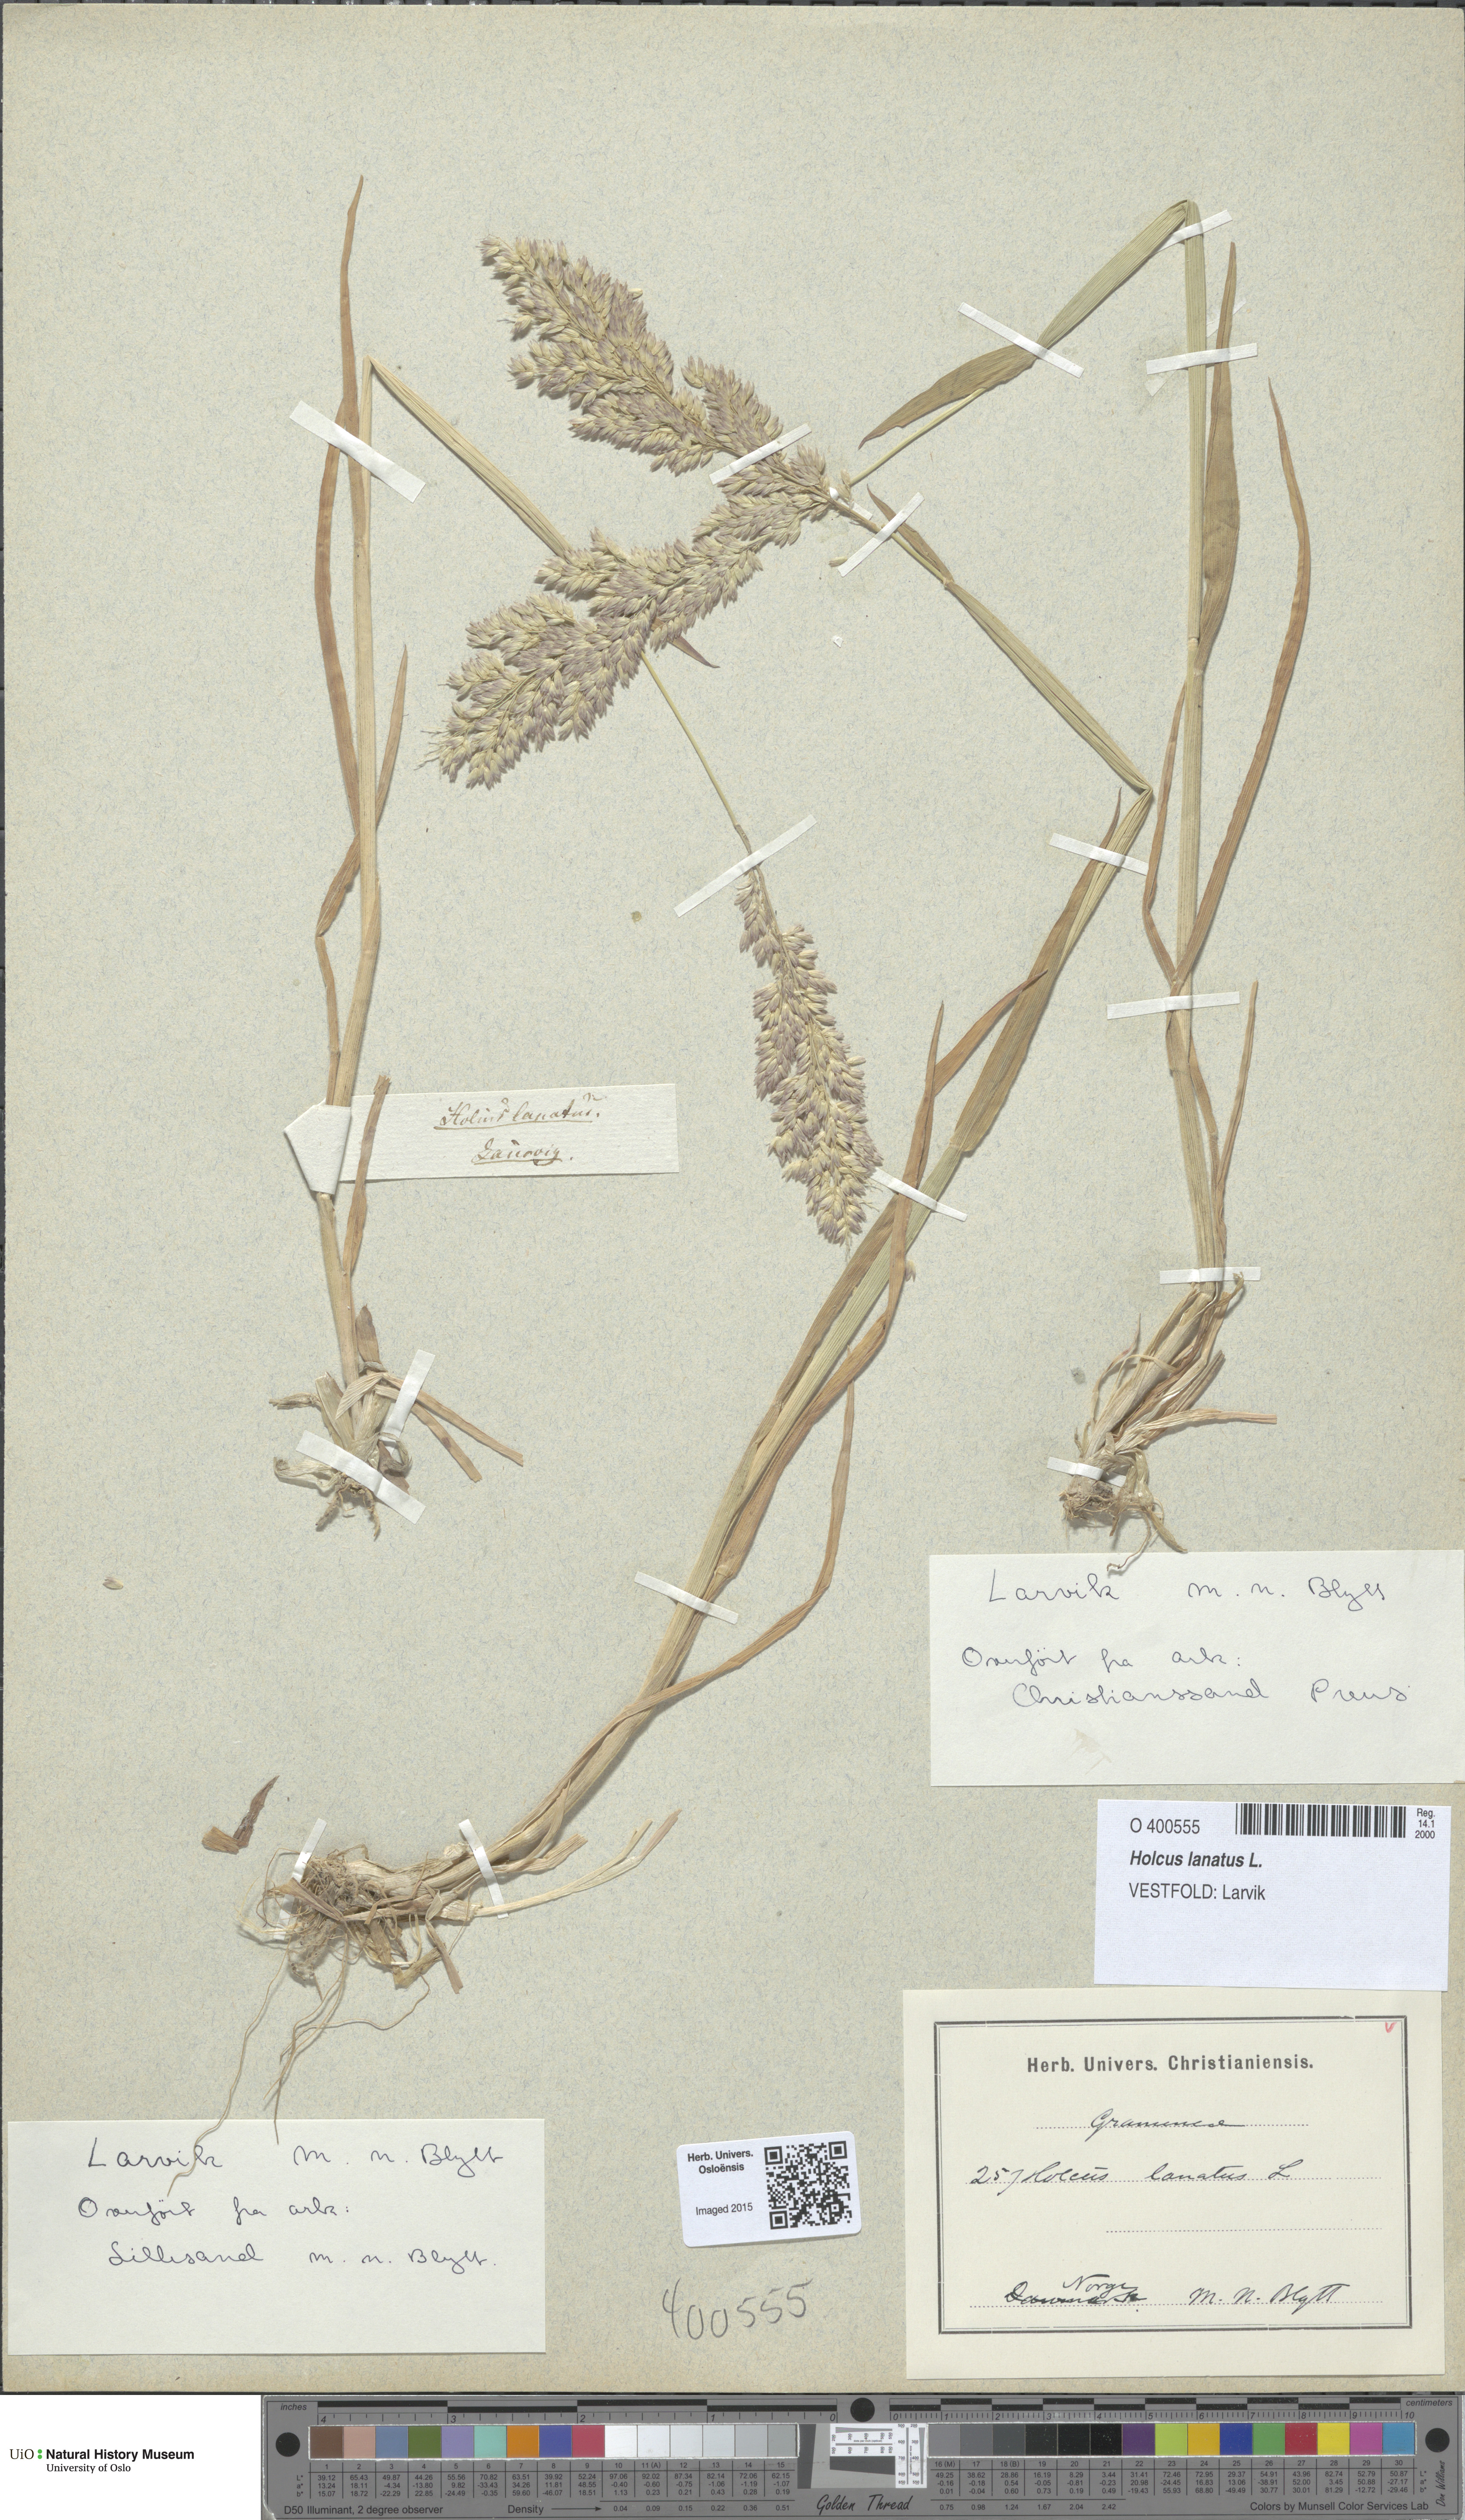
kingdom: Plantae
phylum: Tracheophyta
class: Liliopsida
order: Poales
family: Poaceae
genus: Holcus
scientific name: Holcus lanatus
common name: Yorkshire-fog
